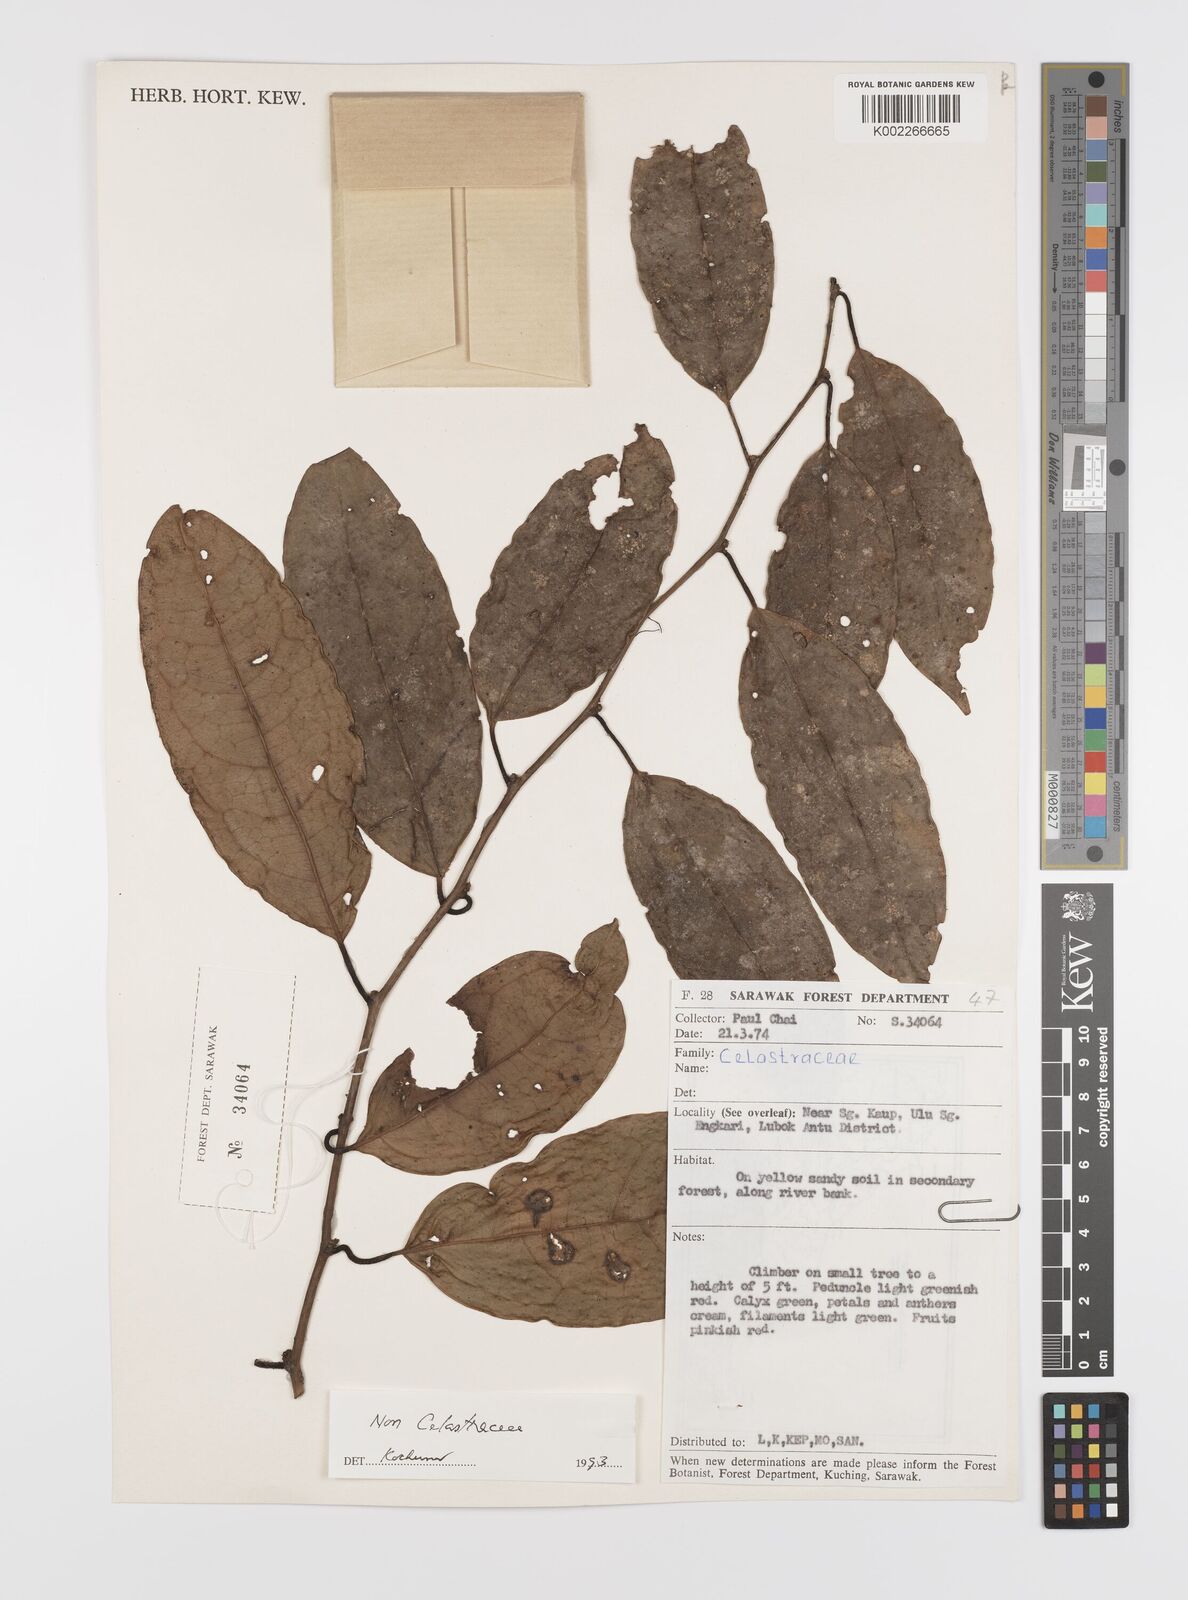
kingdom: Plantae
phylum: Tracheophyta
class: Magnoliopsida
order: Celastrales
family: Celastraceae
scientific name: Celastraceae
